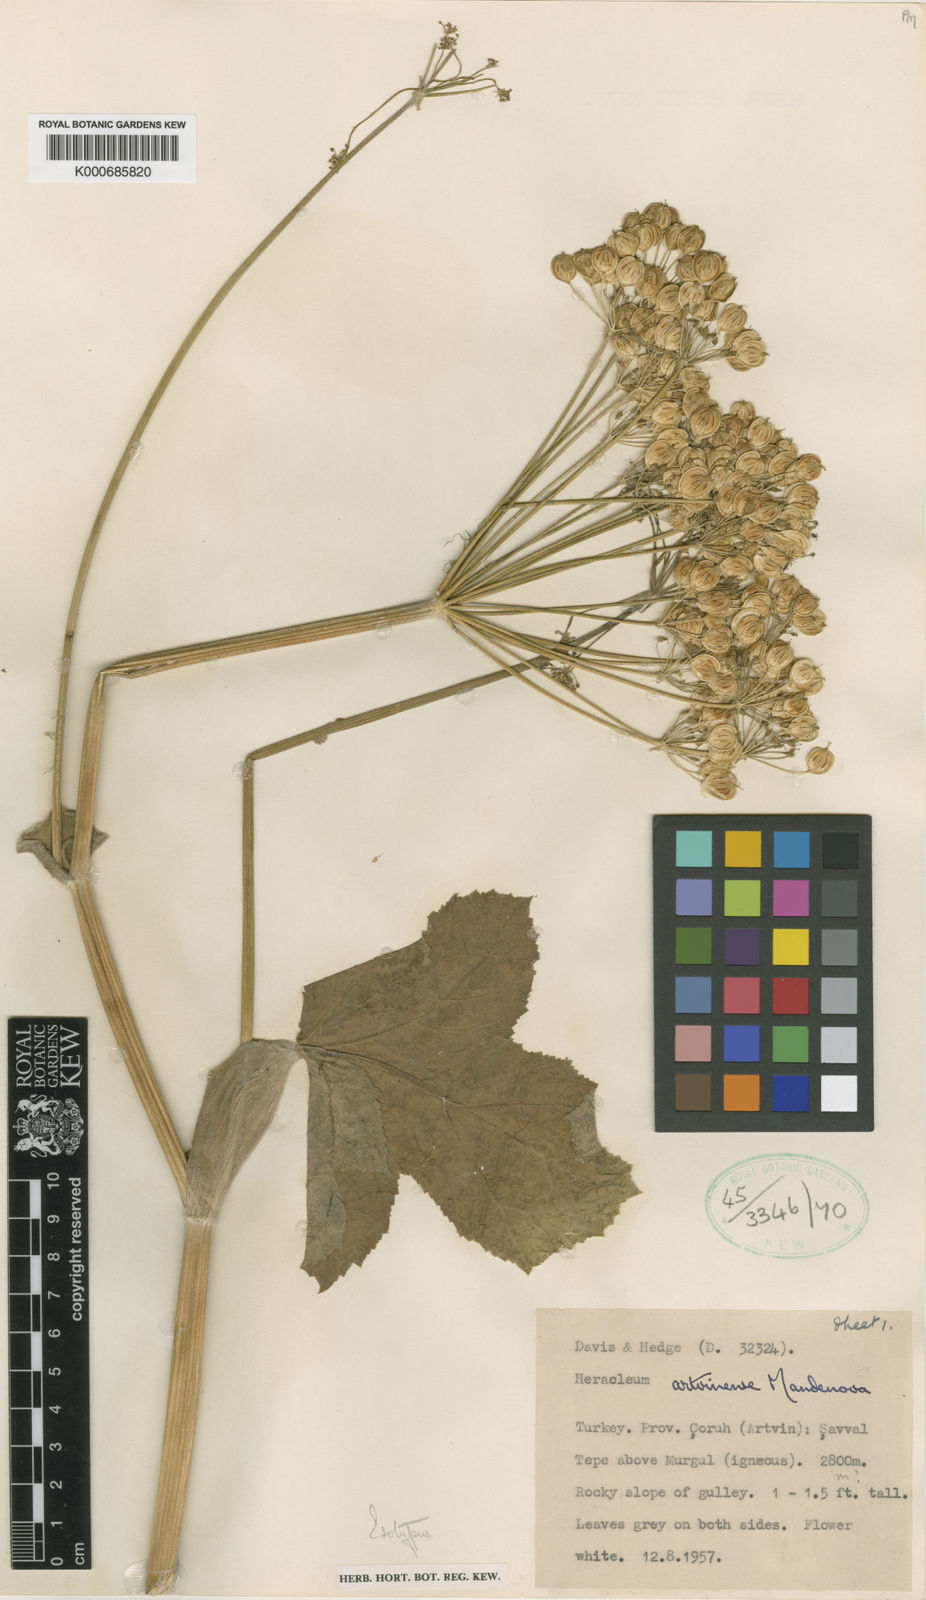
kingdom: Plantae
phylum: Tracheophyta
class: Magnoliopsida
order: Apiales
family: Apiaceae
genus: Heracleum
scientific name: Heracleum sphondylium
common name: Hogweed
